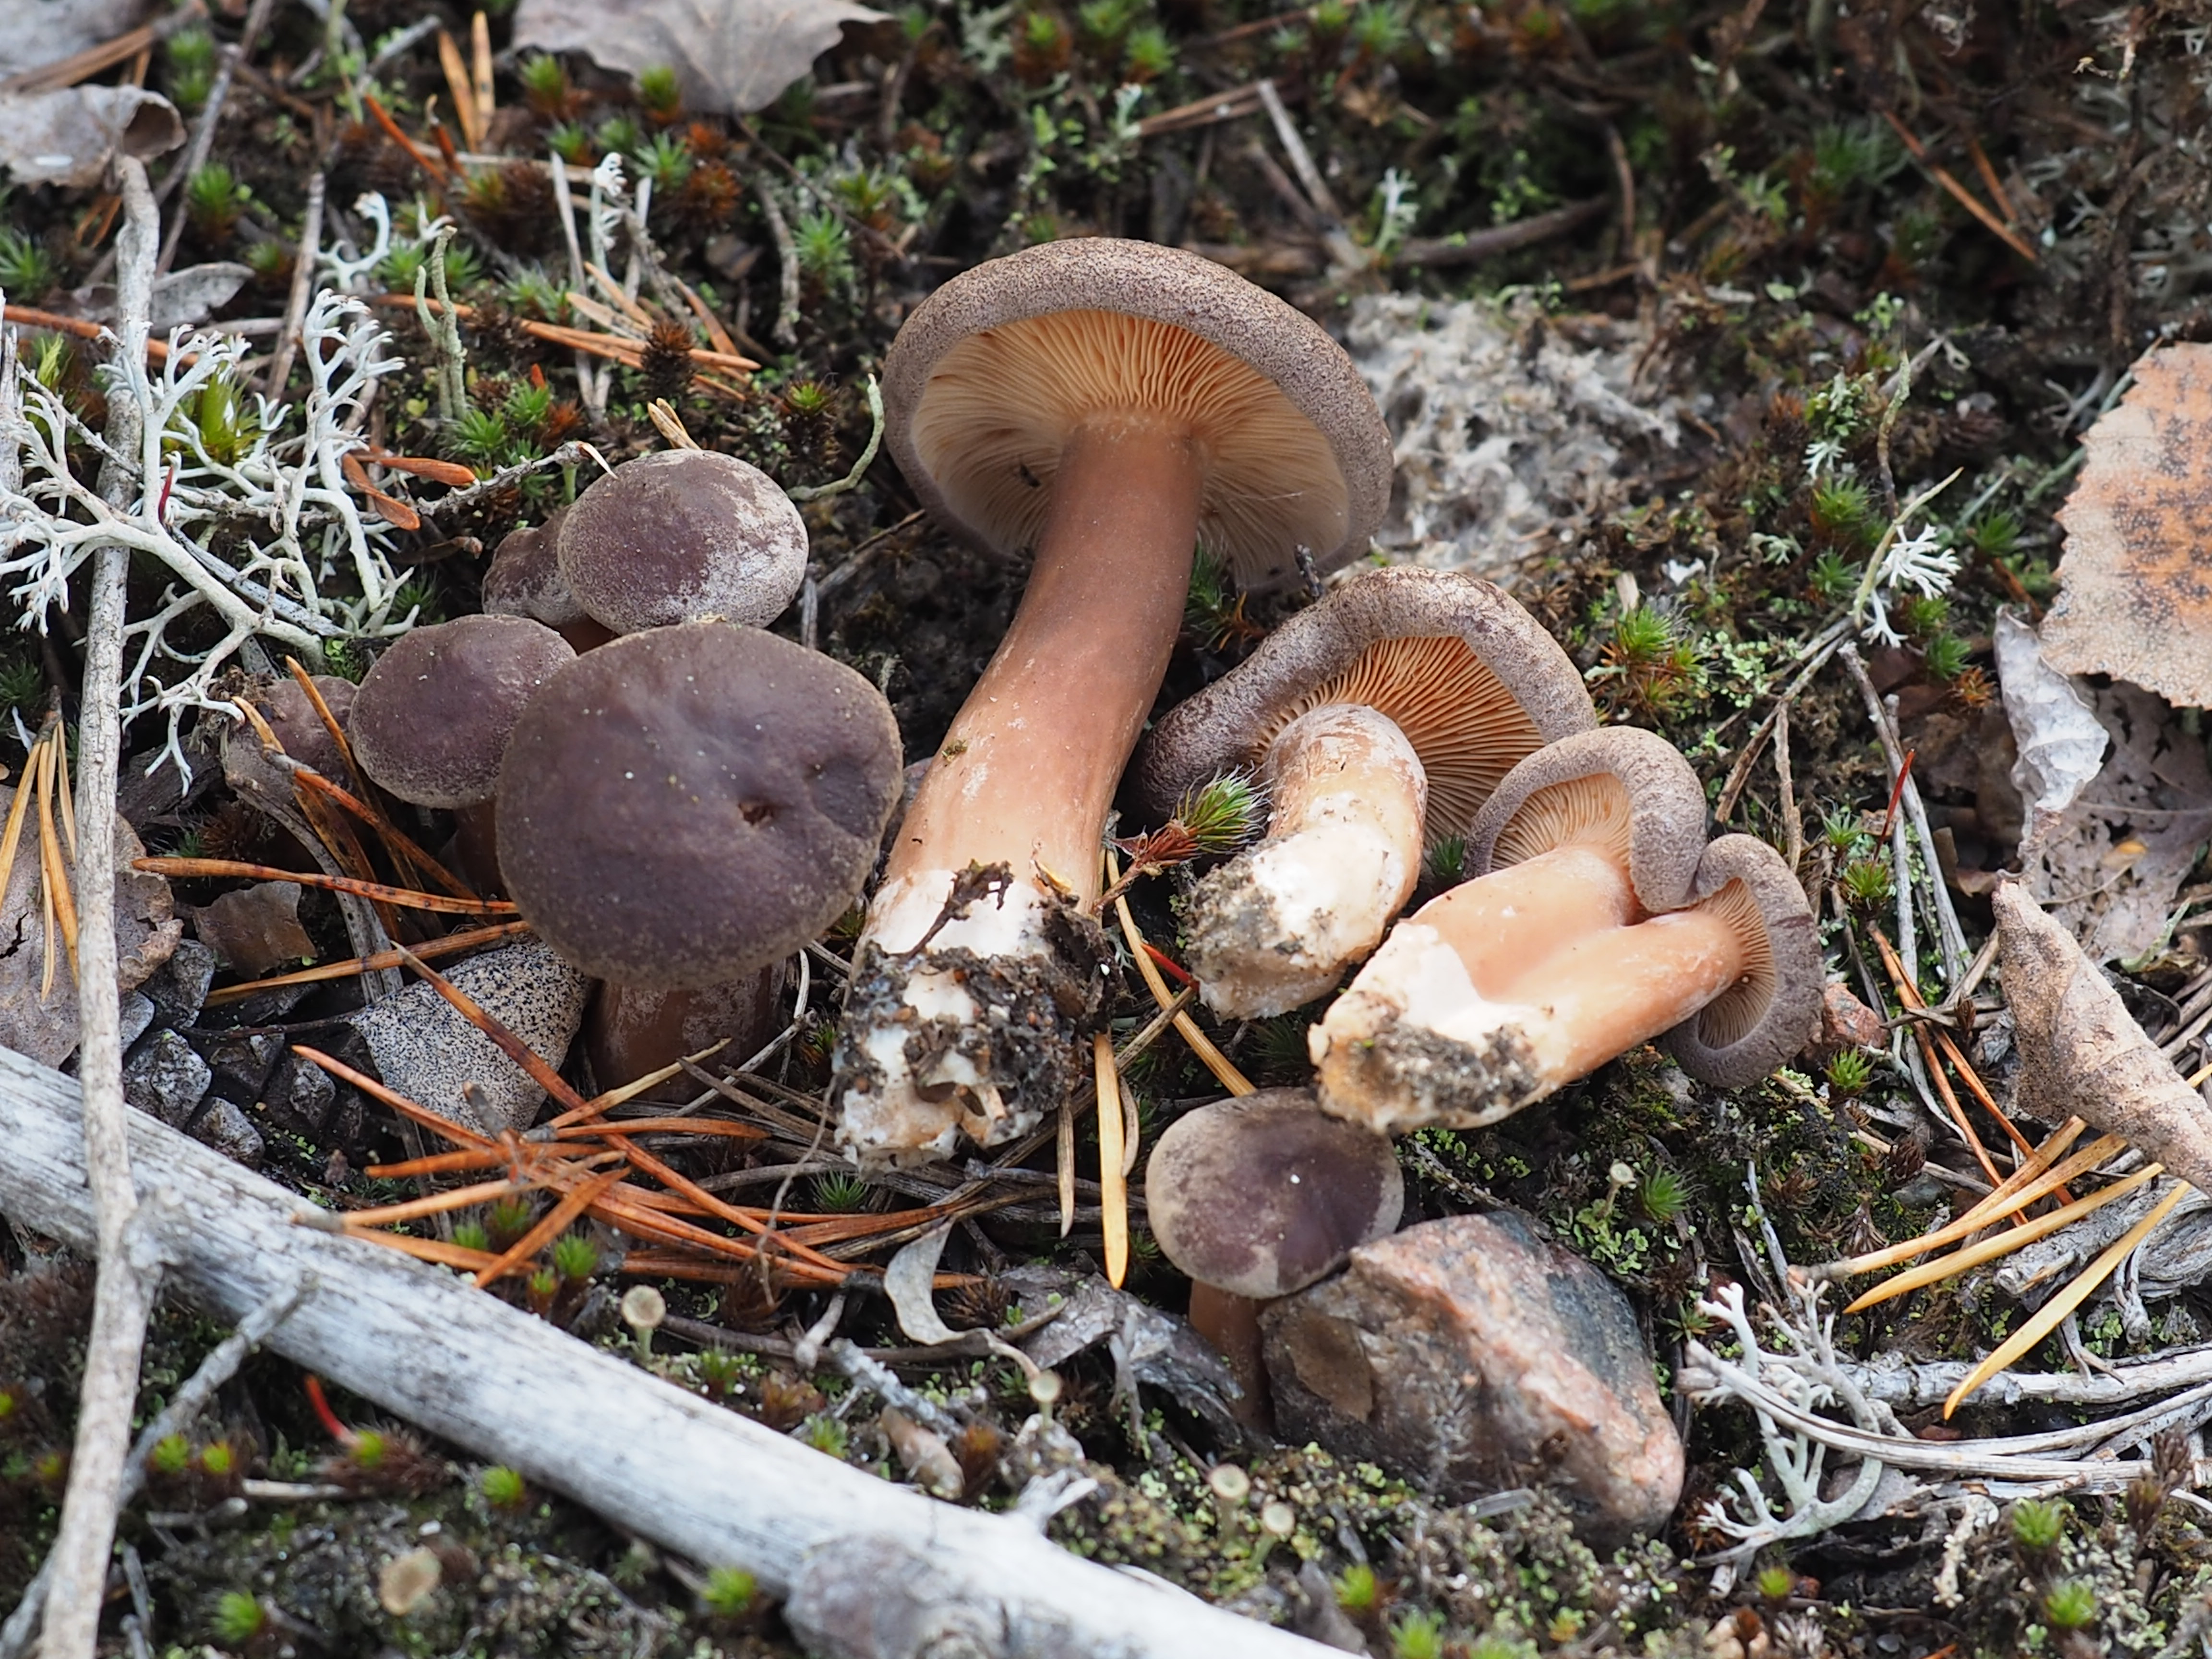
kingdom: Fungi
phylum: Basidiomycota
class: Agaricomycetes
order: Russulales
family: Russulaceae
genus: Lactarius
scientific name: Lactarius lignyotus
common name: Velvet milkcap
